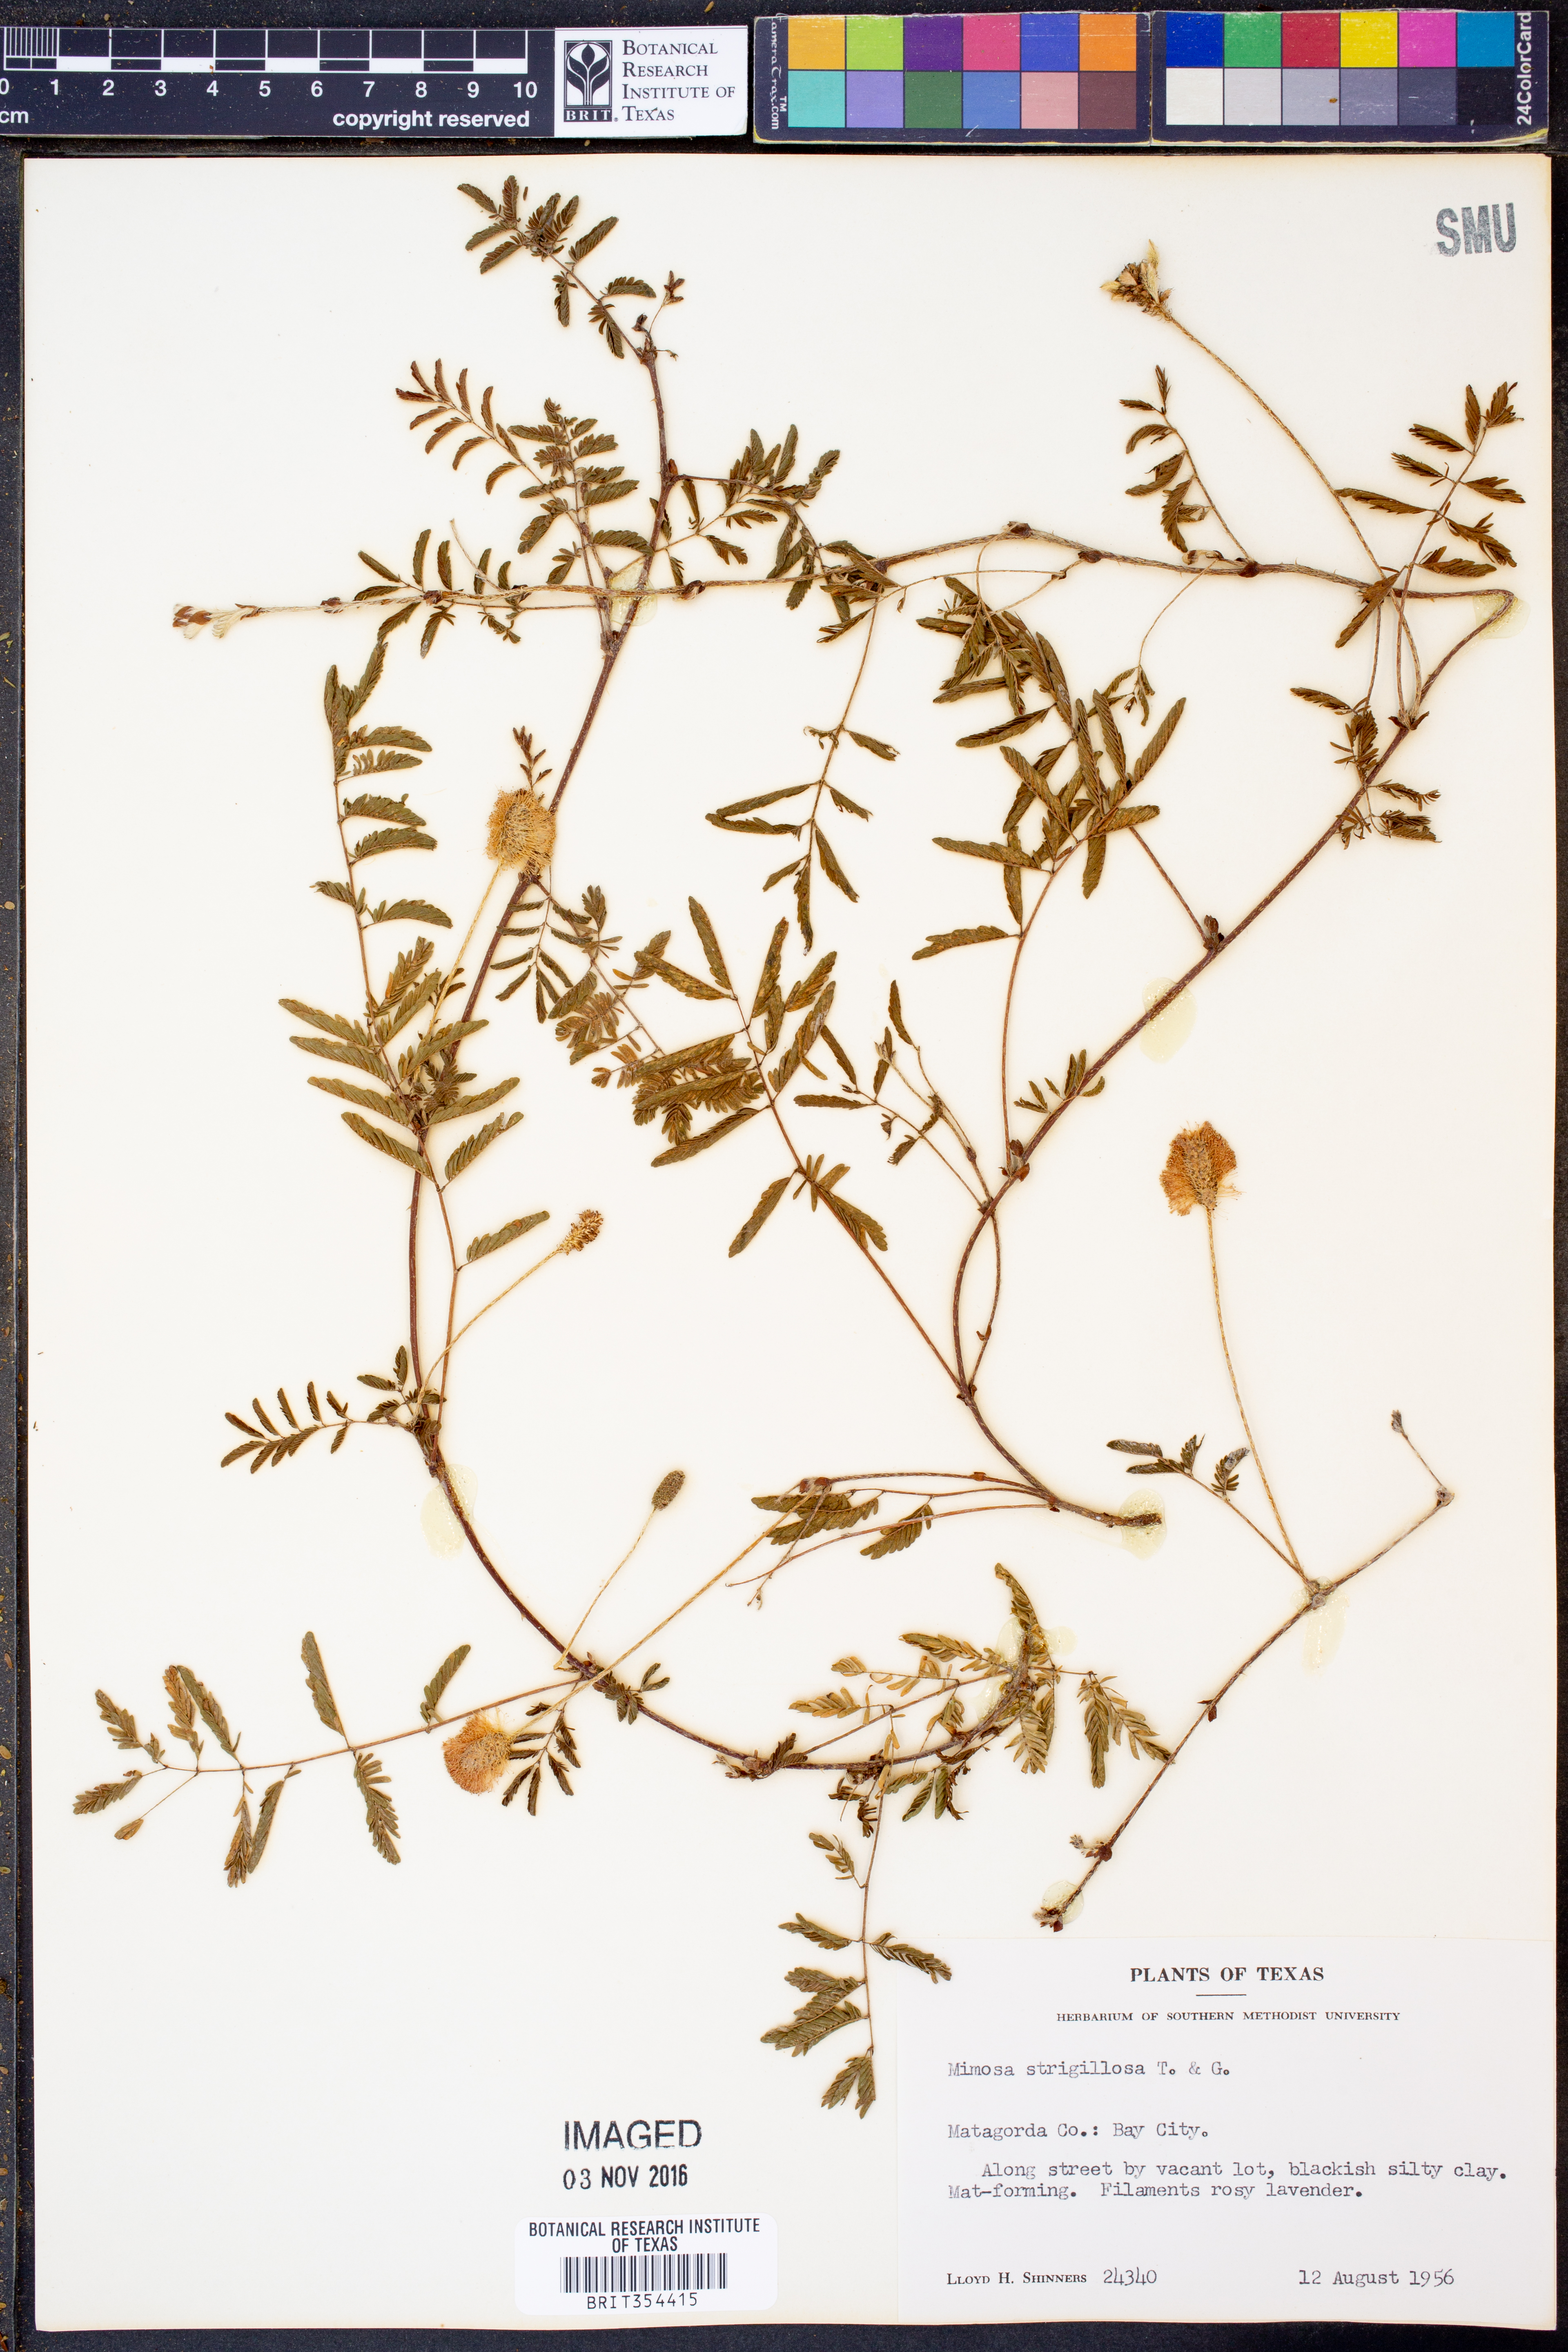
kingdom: Plantae
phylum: Tracheophyta
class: Magnoliopsida
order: Fabales
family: Fabaceae
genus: Mimosa
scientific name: Mimosa strigillosa
